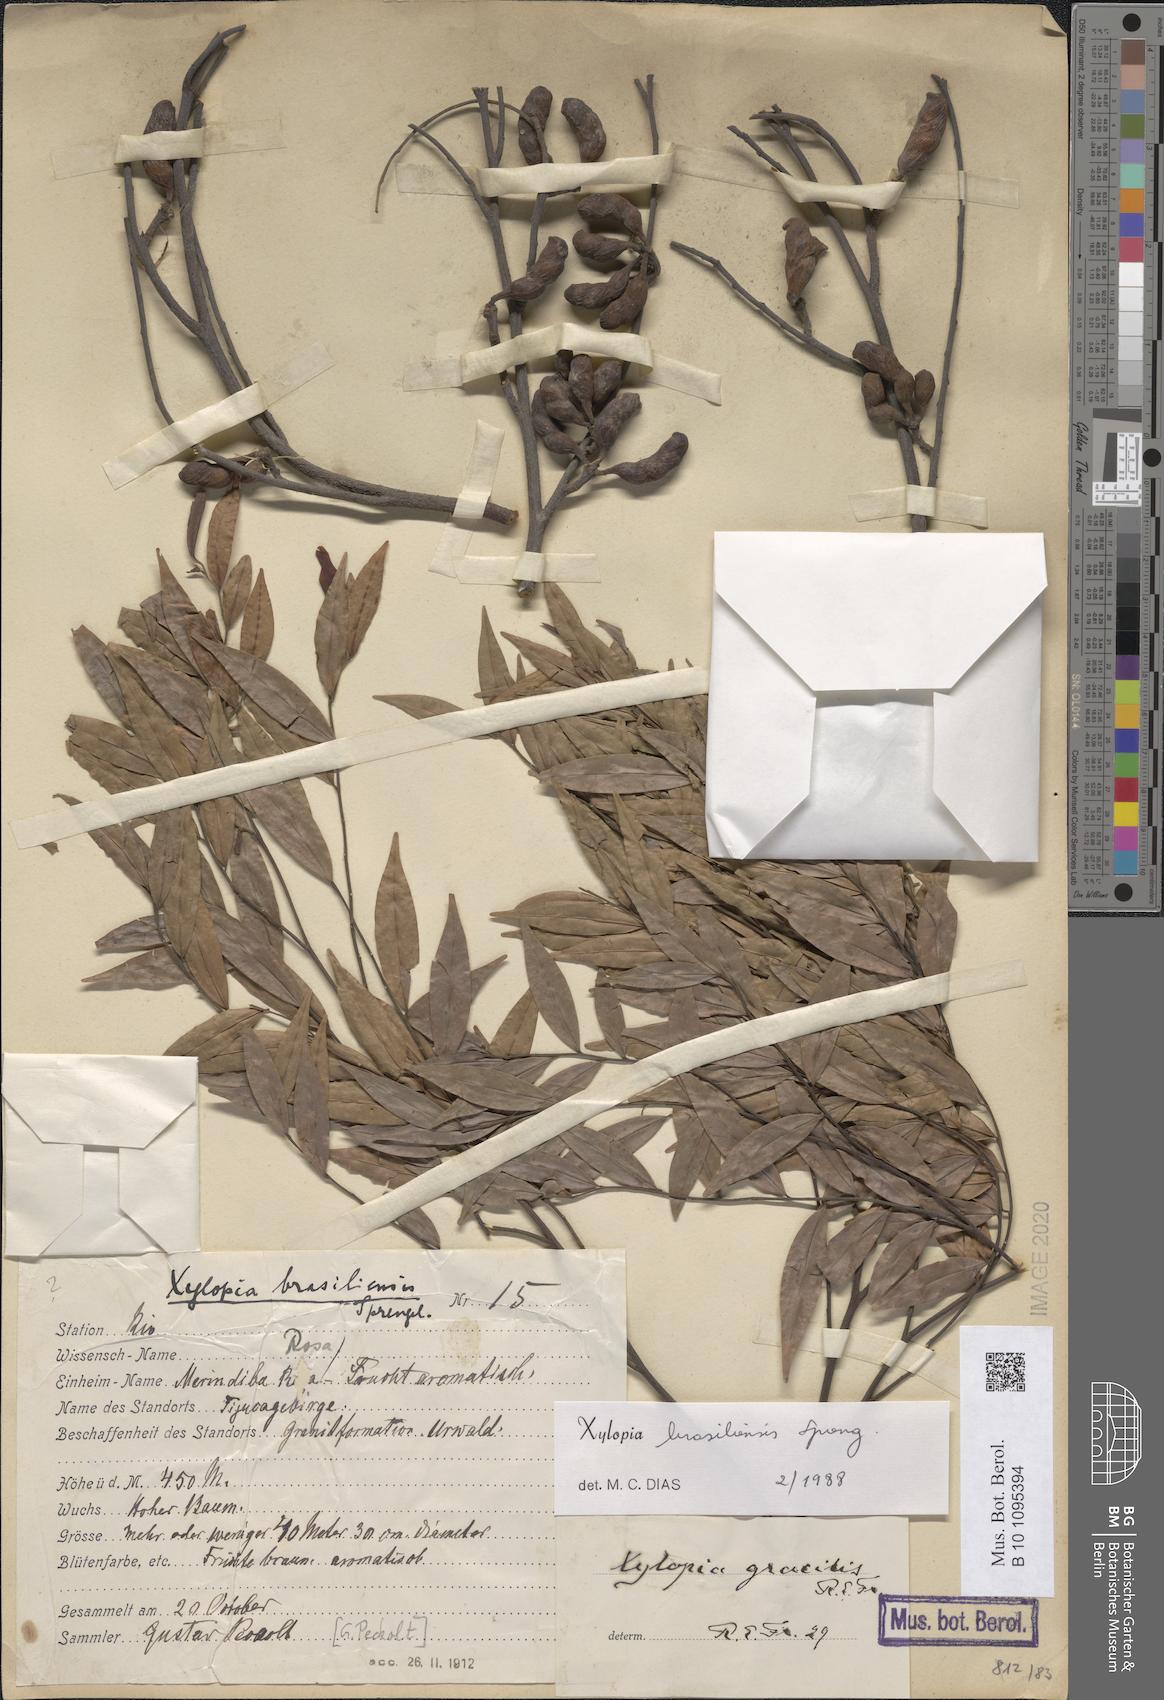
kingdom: Plantae
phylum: Tracheophyta
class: Magnoliopsida
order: Magnoliales
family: Annonaceae
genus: Xylopia
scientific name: Xylopia brasiliensis
